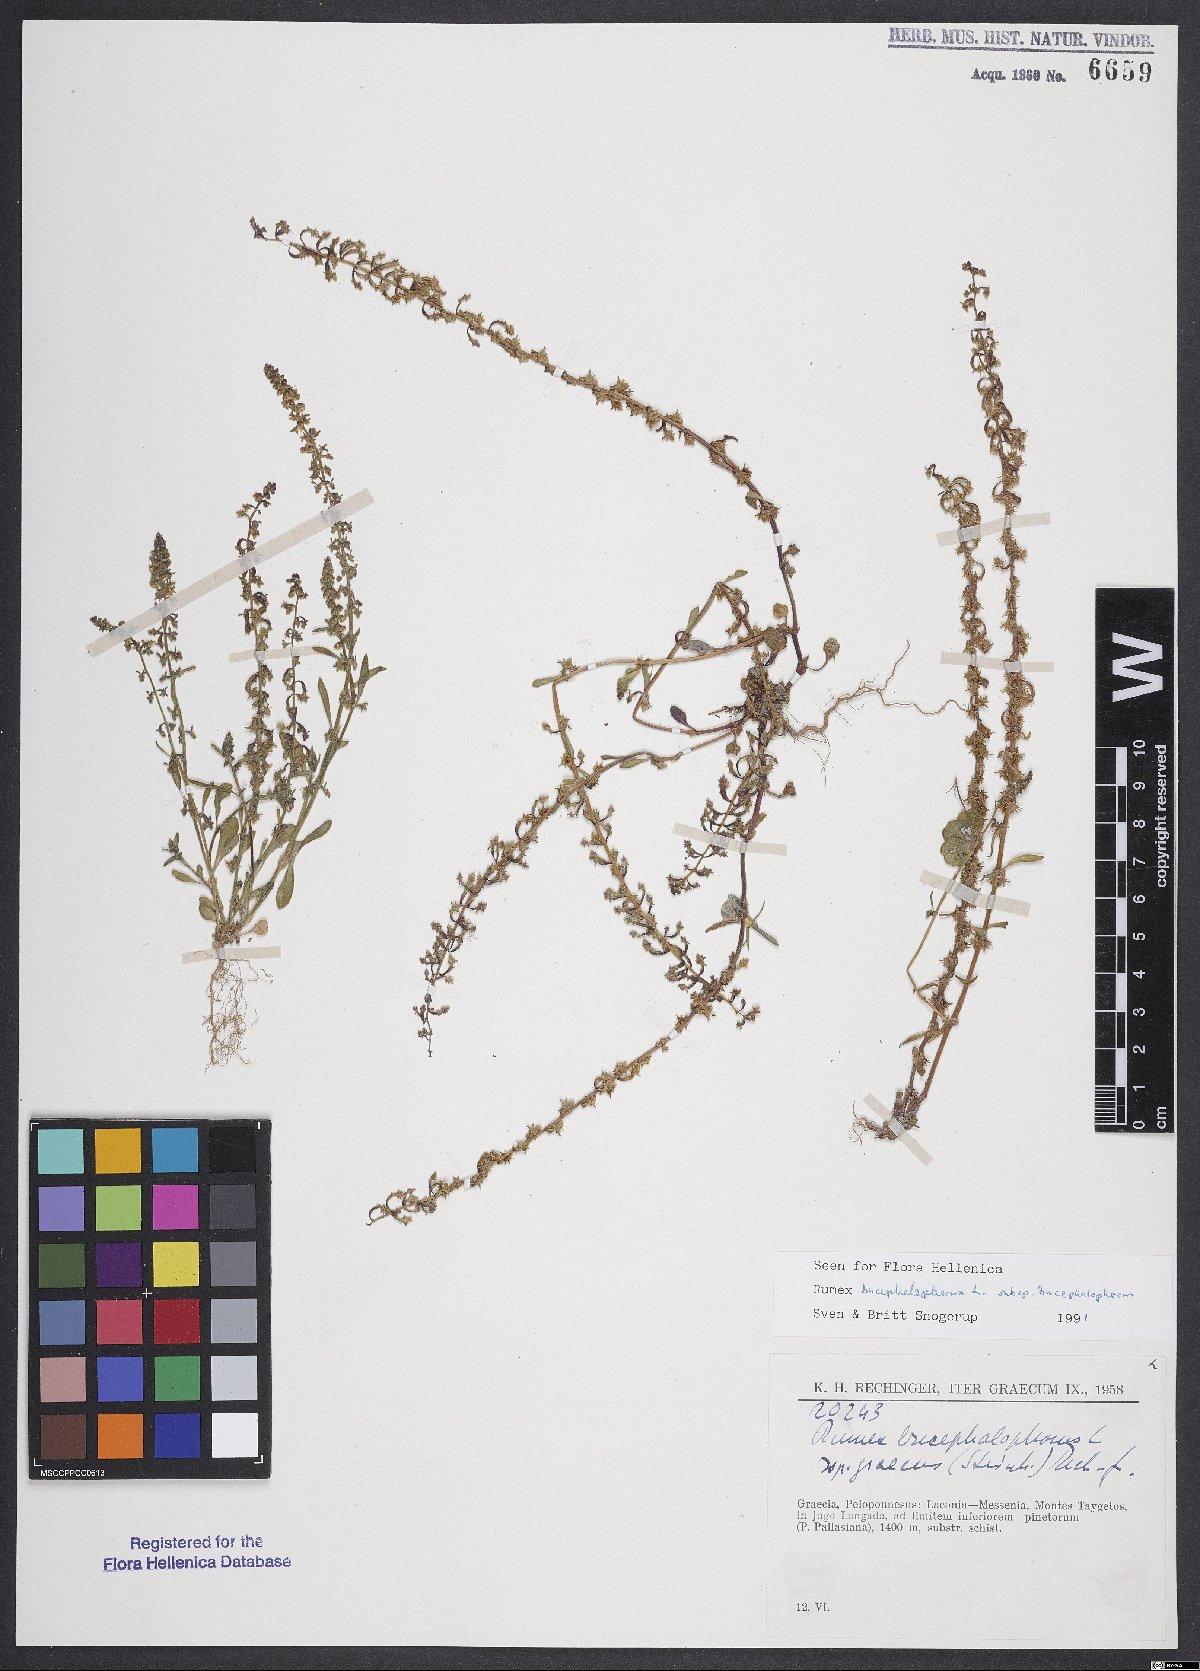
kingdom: Plantae
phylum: Tracheophyta
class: Magnoliopsida
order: Caryophyllales
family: Polygonaceae
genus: Rumex
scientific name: Rumex bucephalophorus
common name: Red dock
